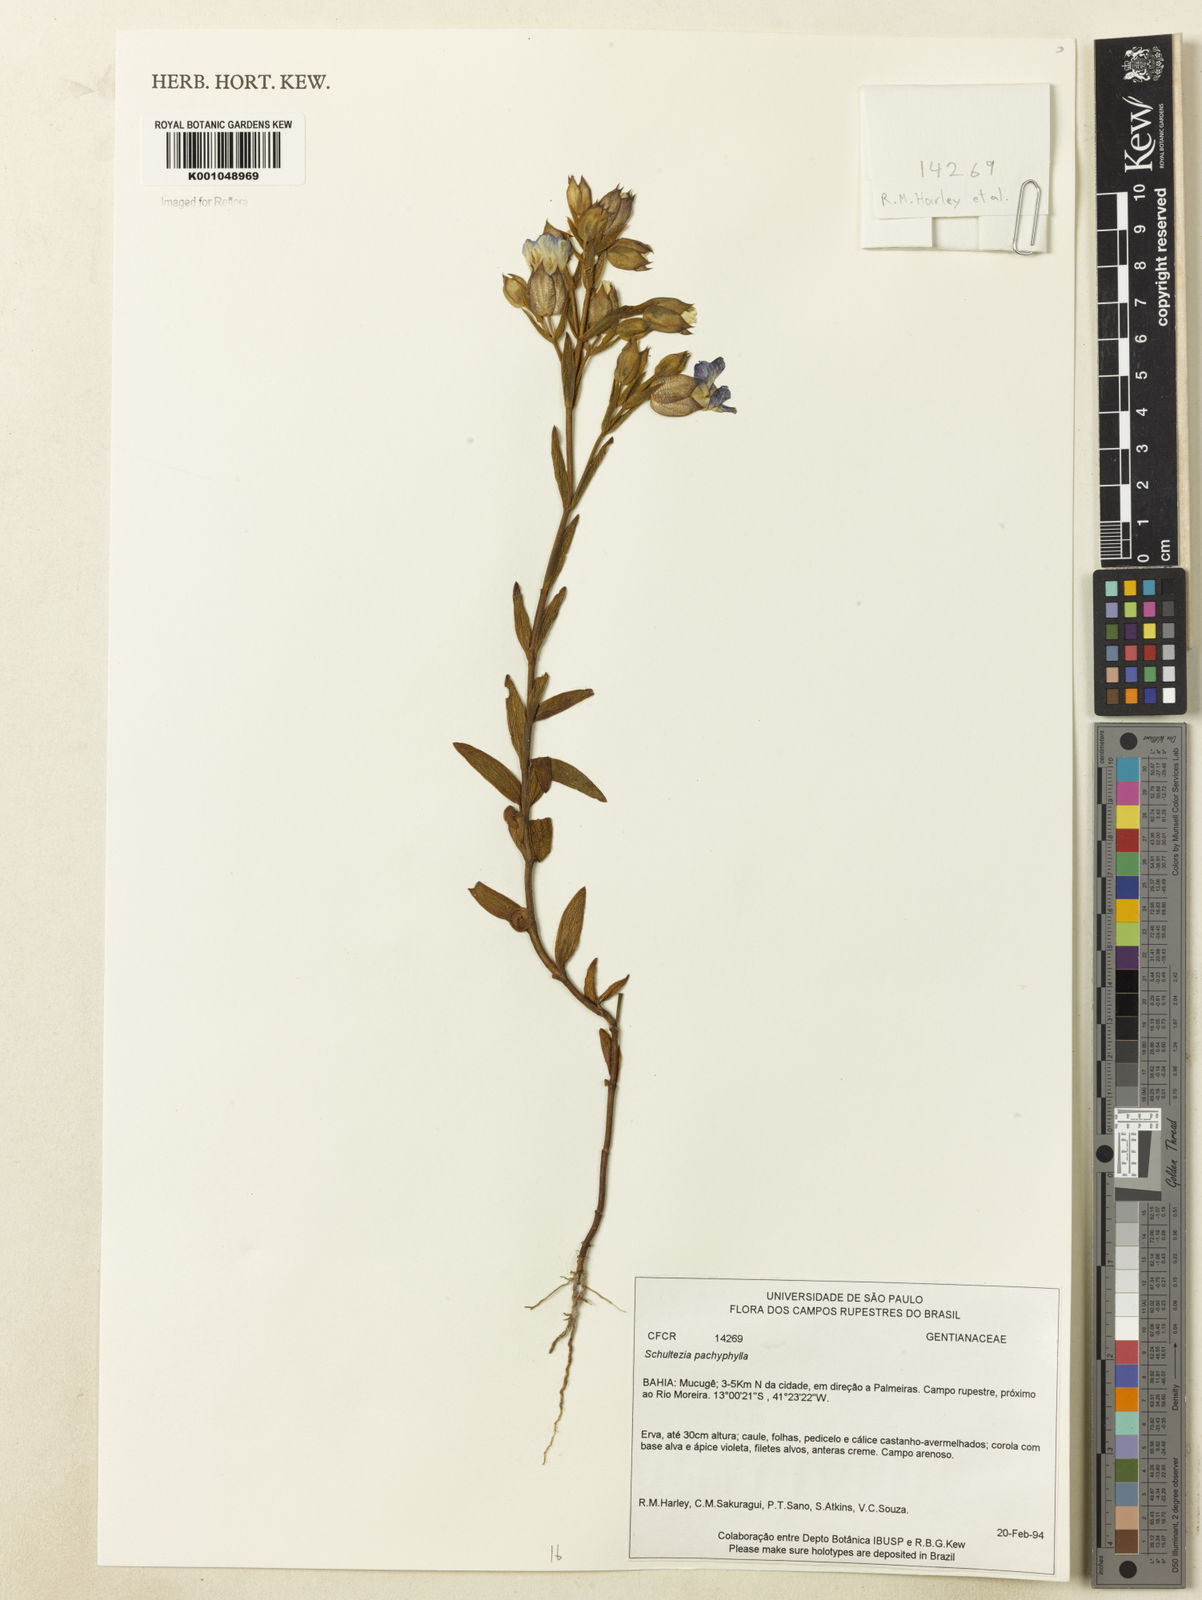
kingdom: Plantae
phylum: Tracheophyta
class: Magnoliopsida
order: Gentianales
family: Gentianaceae
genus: Schultesia
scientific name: Schultesia pachyphylla
